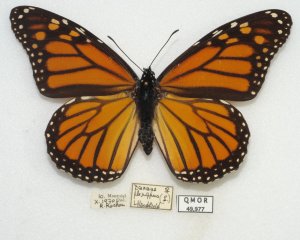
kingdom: Animalia
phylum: Arthropoda
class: Insecta
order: Lepidoptera
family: Nymphalidae
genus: Danaus
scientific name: Danaus plexippus
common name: Monarch
